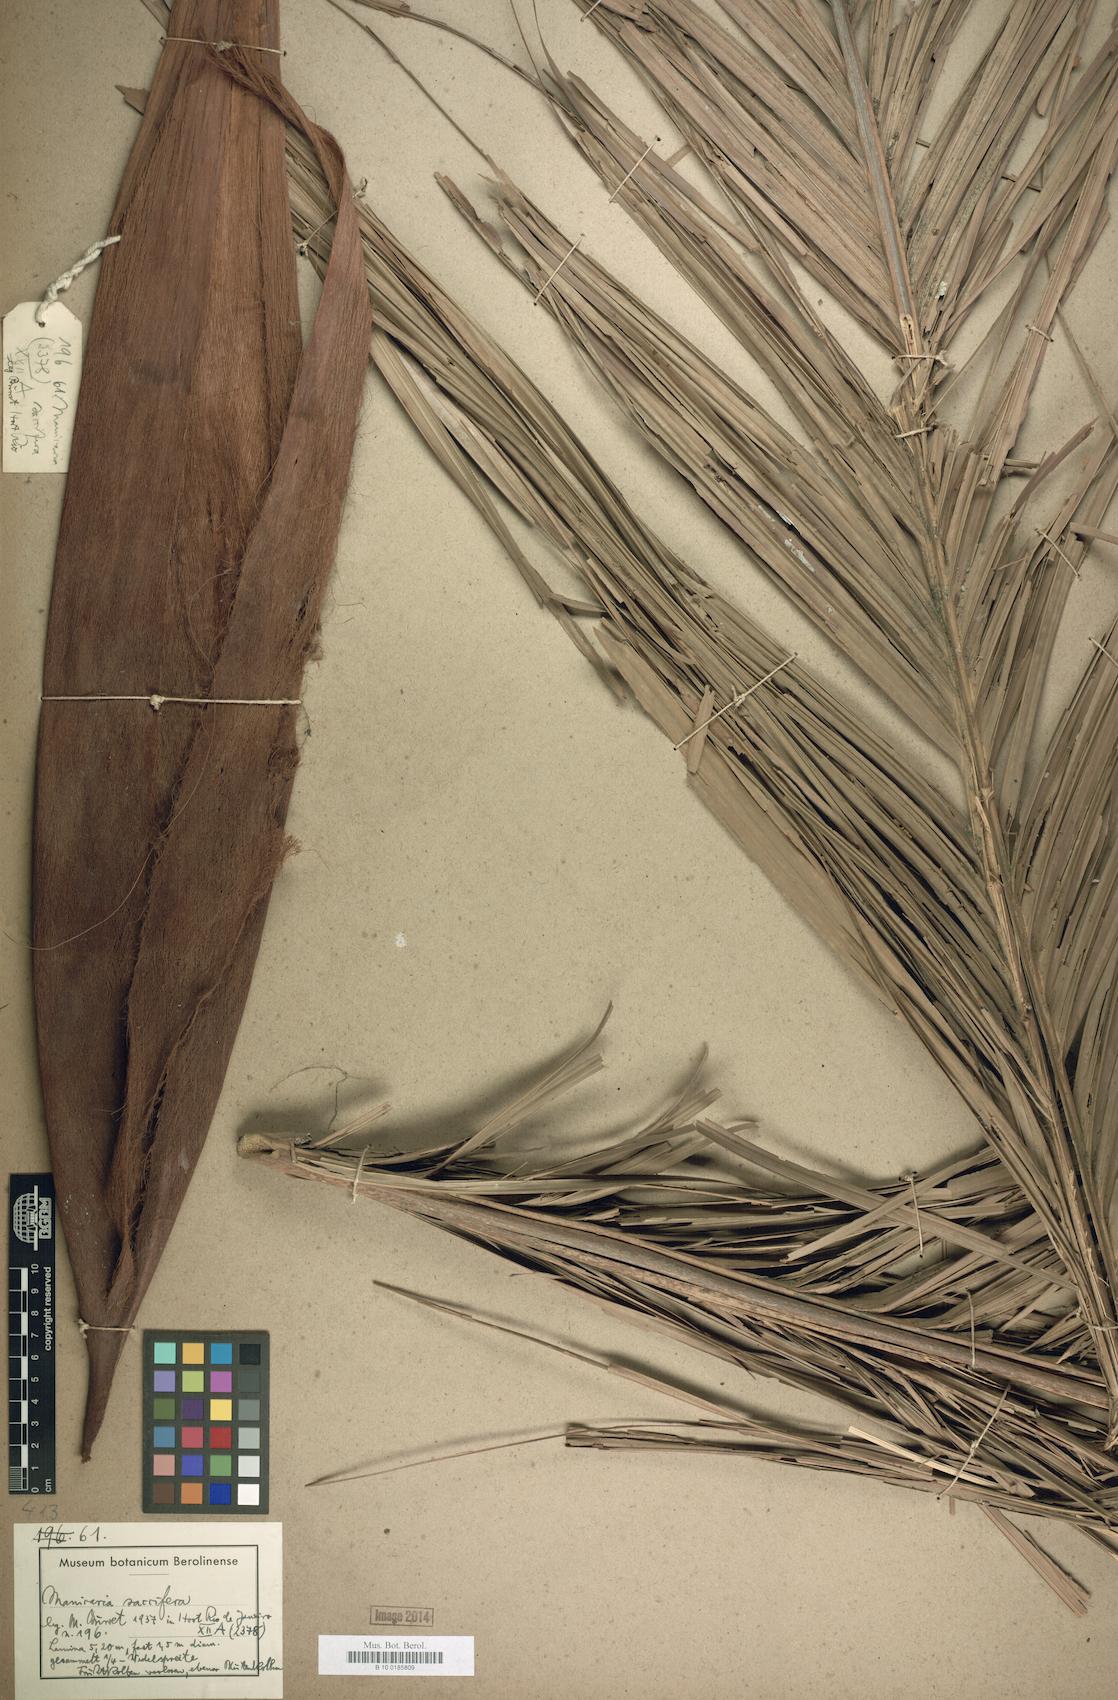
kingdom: Plantae
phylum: Tracheophyta
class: Liliopsida
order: Arecales
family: Arecaceae
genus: Manicaria
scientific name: Manicaria saccifera
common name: Sea coconut
